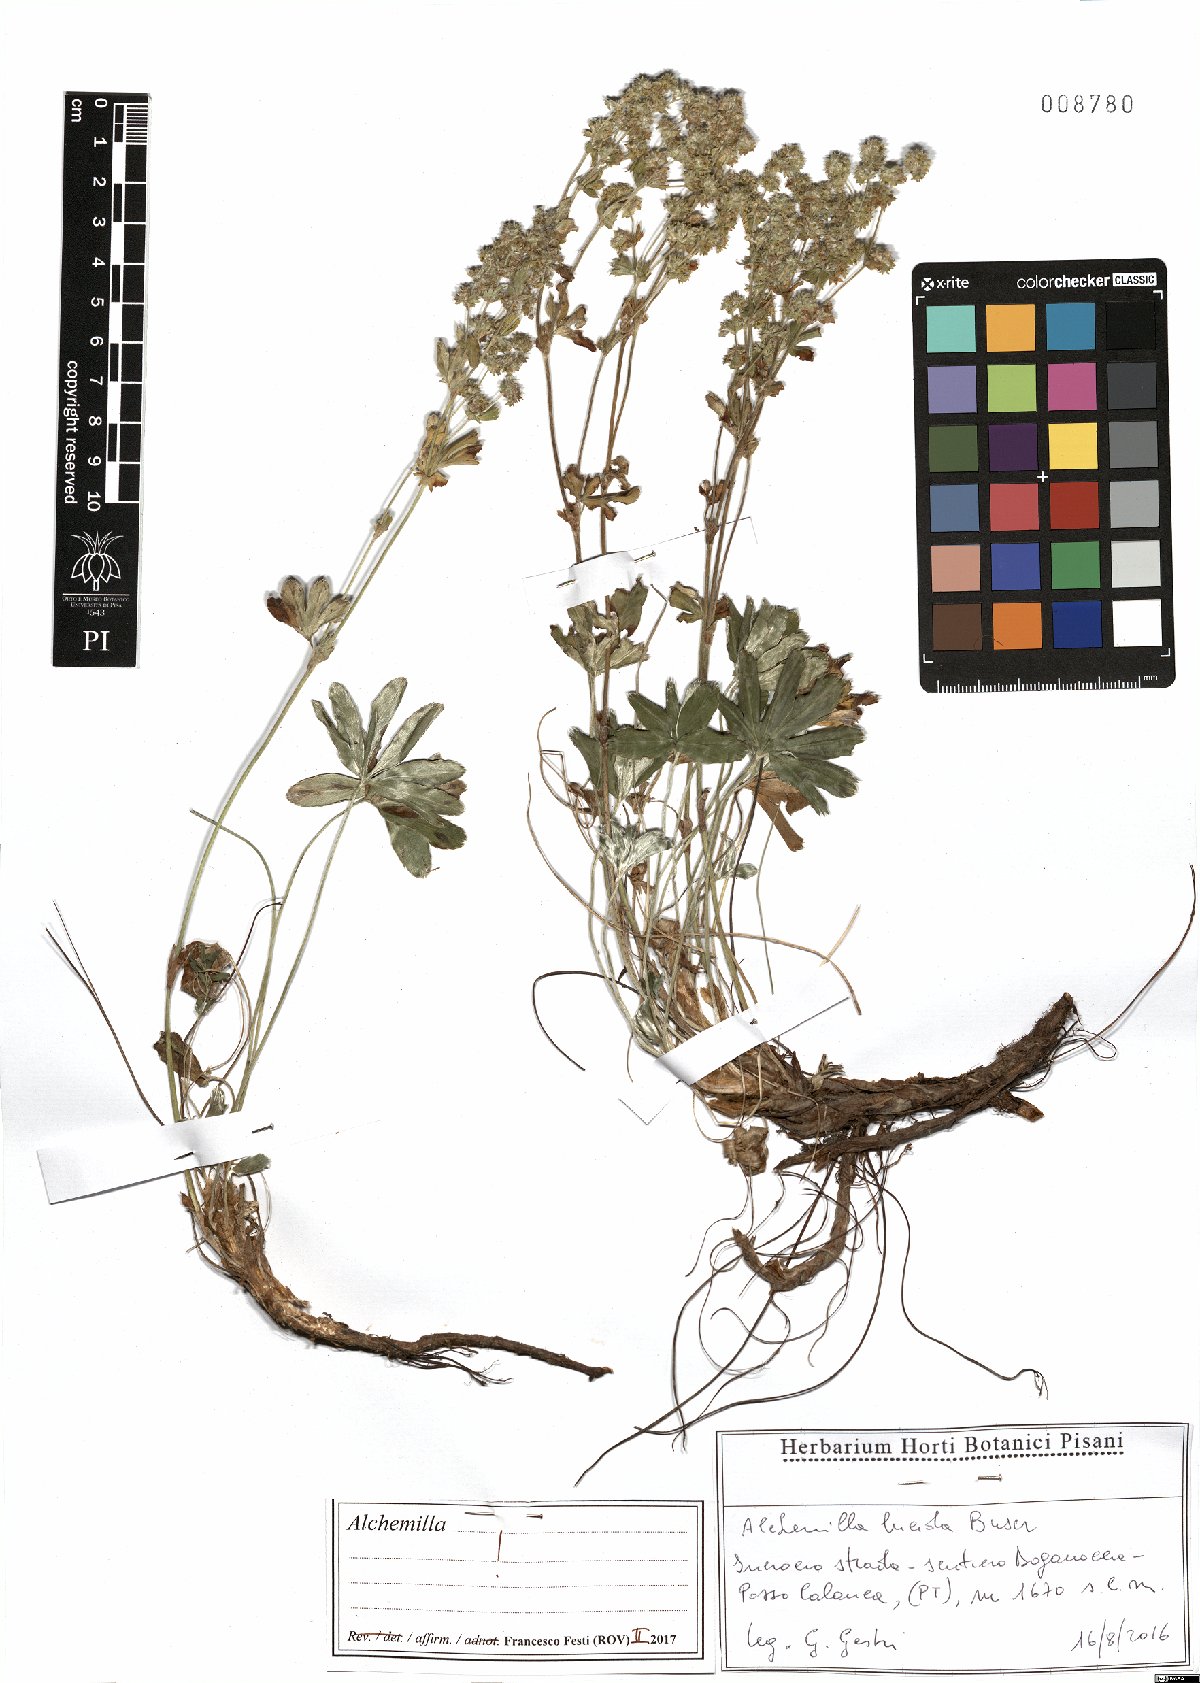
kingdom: Plantae
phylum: Tracheophyta
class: Magnoliopsida
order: Rosales
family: Rosaceae
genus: Alchemilla
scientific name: Alchemilla lucida
